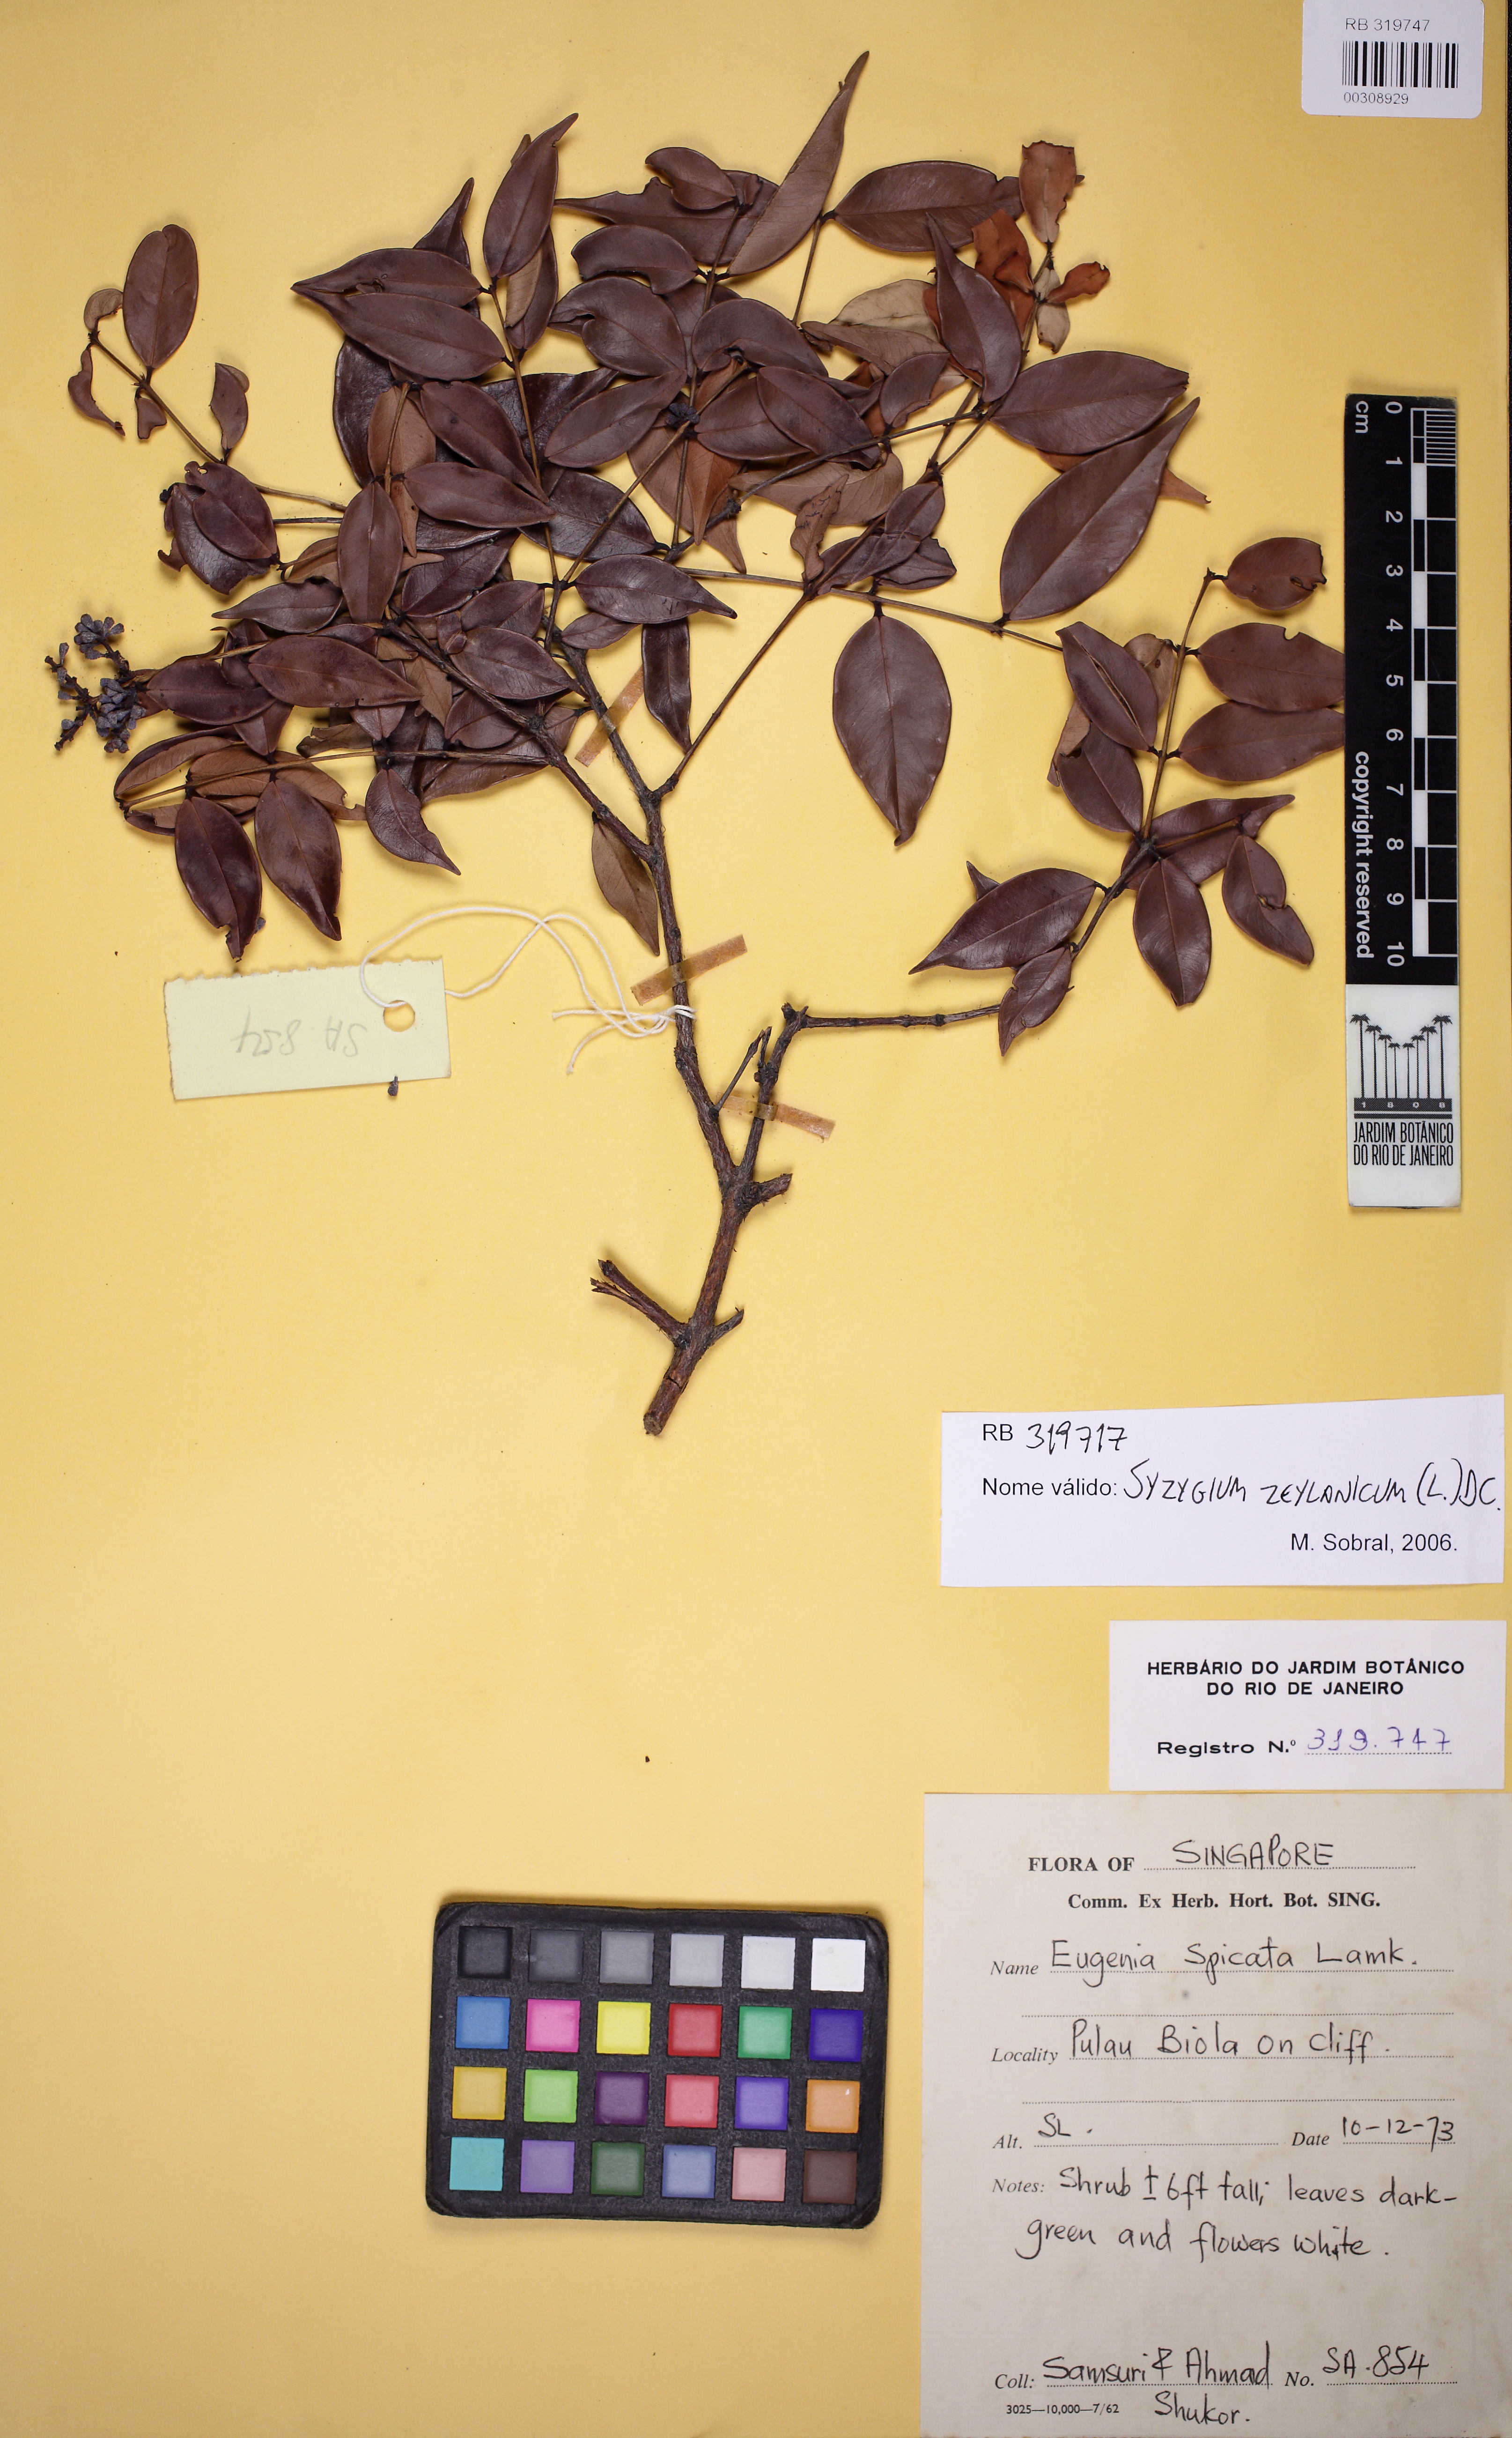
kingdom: Plantae
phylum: Tracheophyta
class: Magnoliopsida
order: Myrtales
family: Myrtaceae
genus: Syzygium
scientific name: Syzygium zeylanicum
